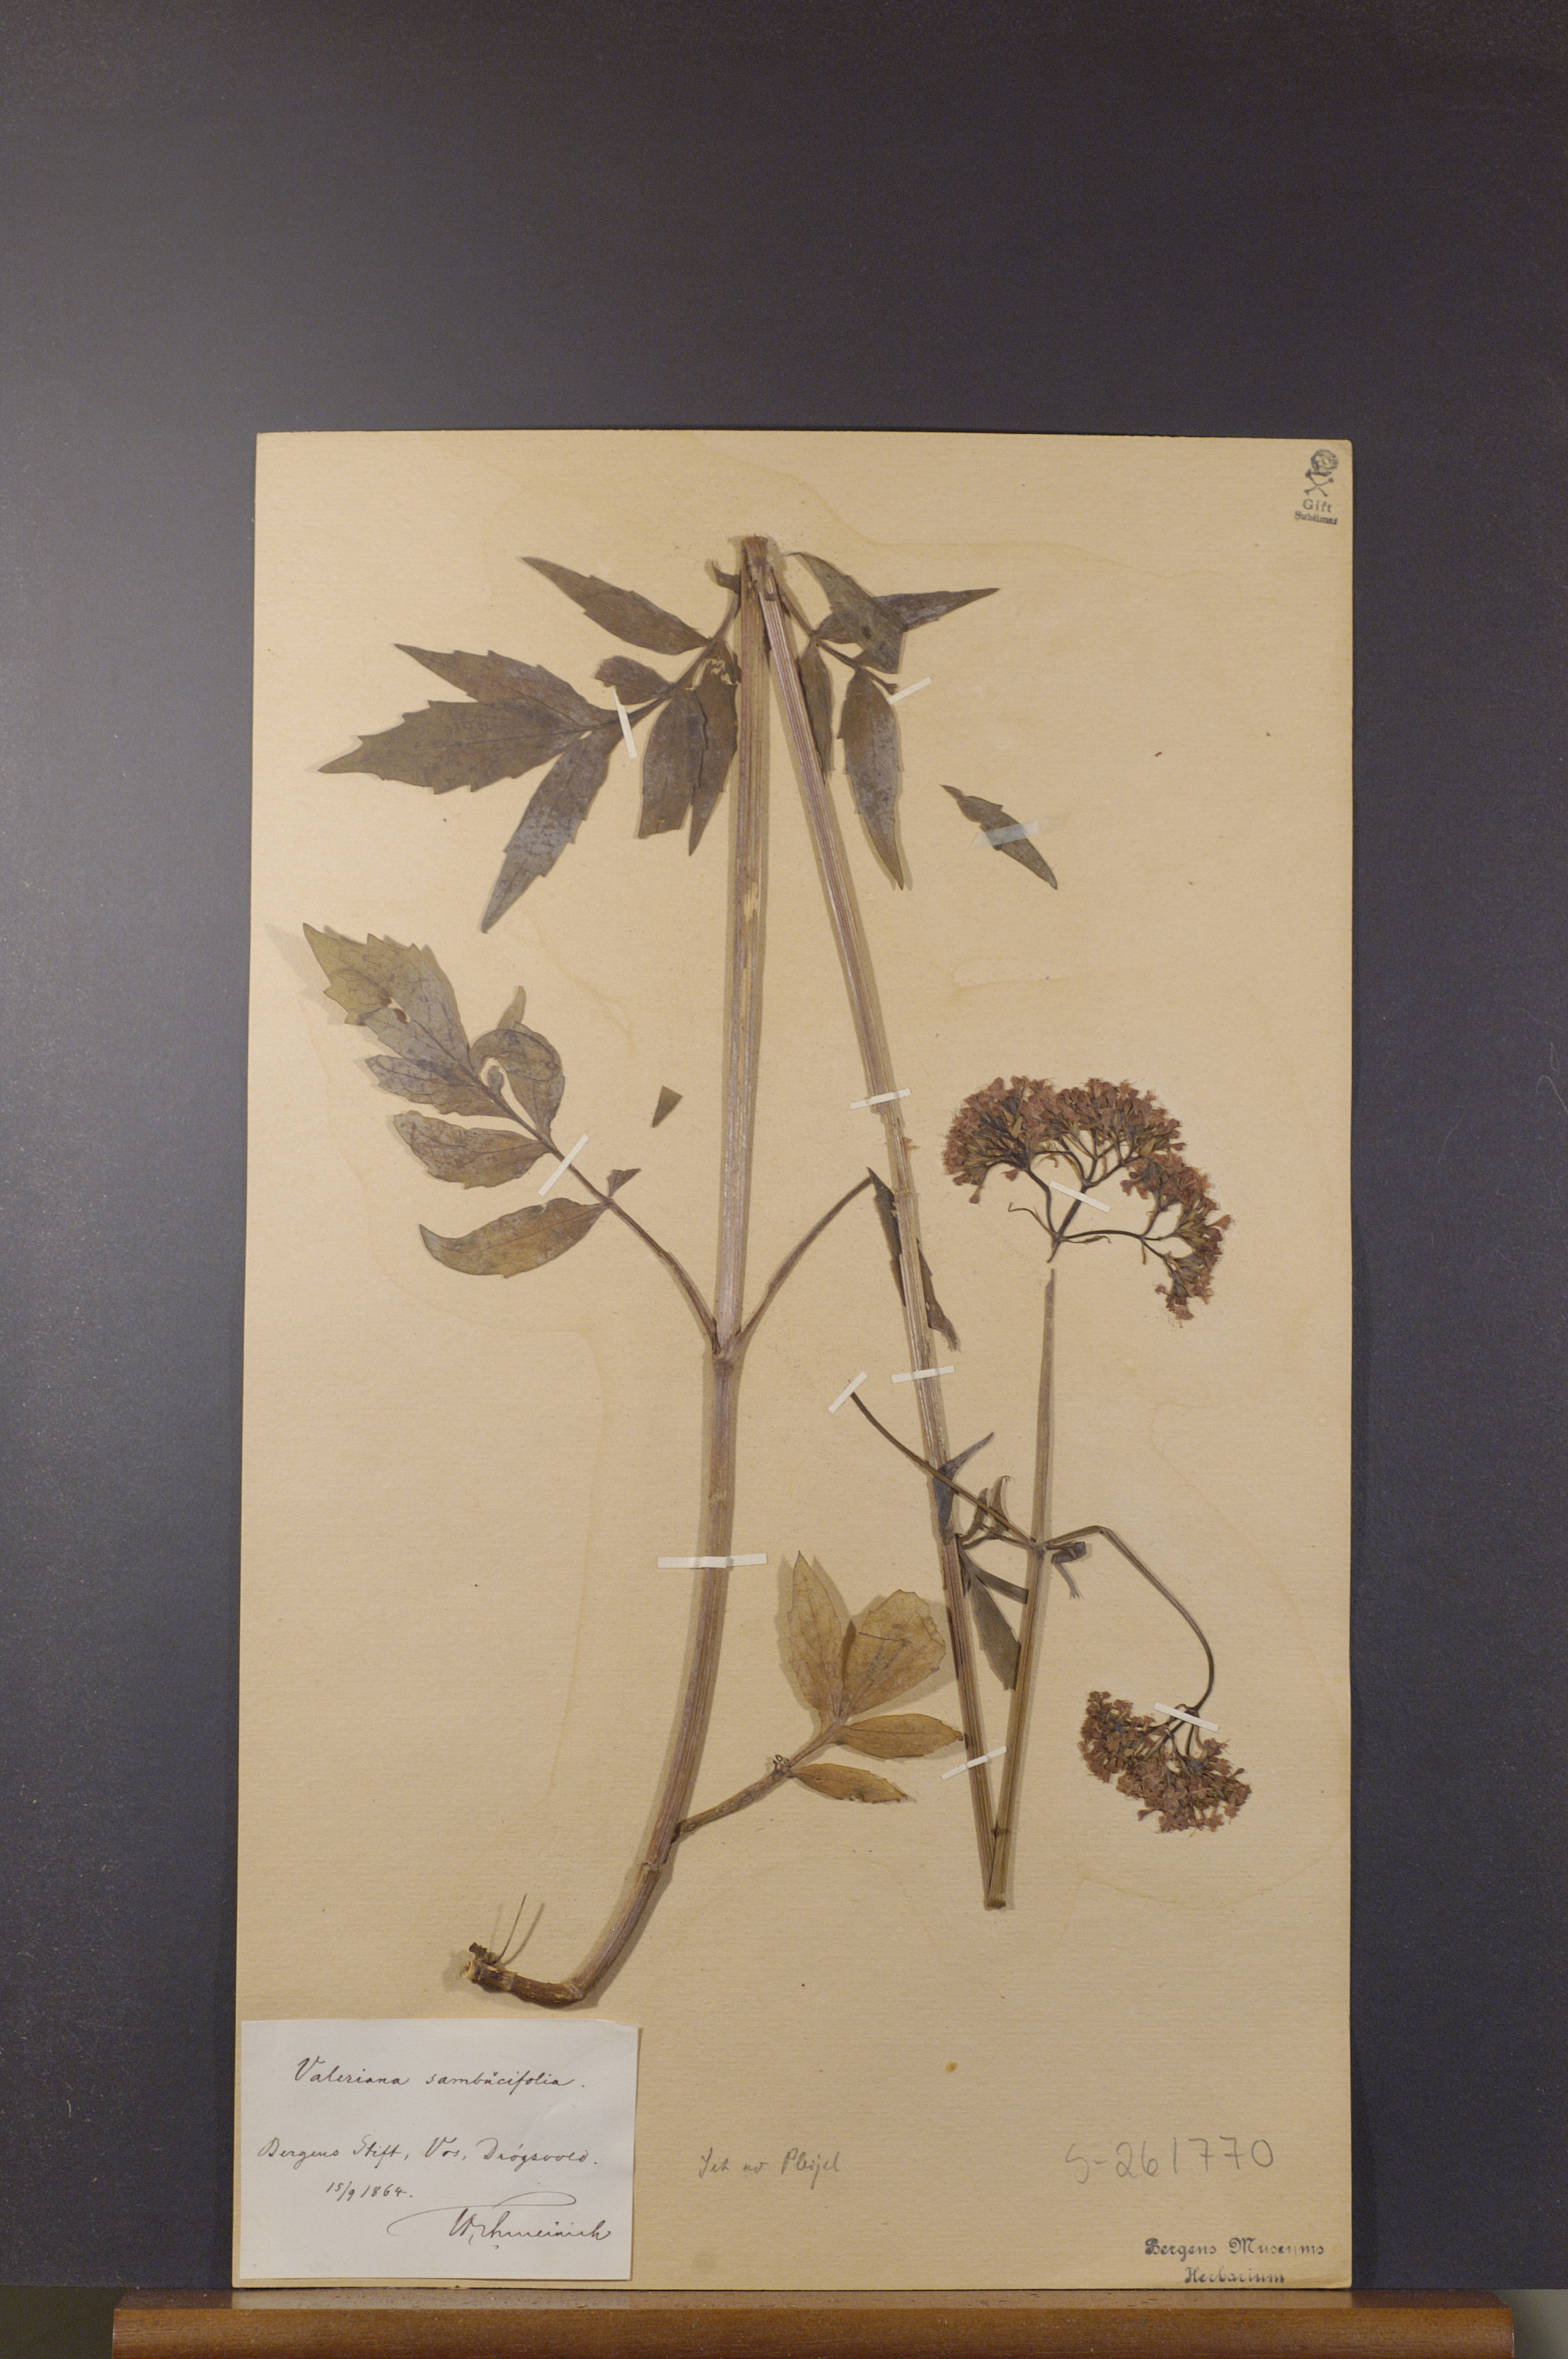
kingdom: Plantae
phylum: Tracheophyta
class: Magnoliopsida
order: Dipsacales
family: Caprifoliaceae
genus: Valeriana
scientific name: Valeriana excelsa
